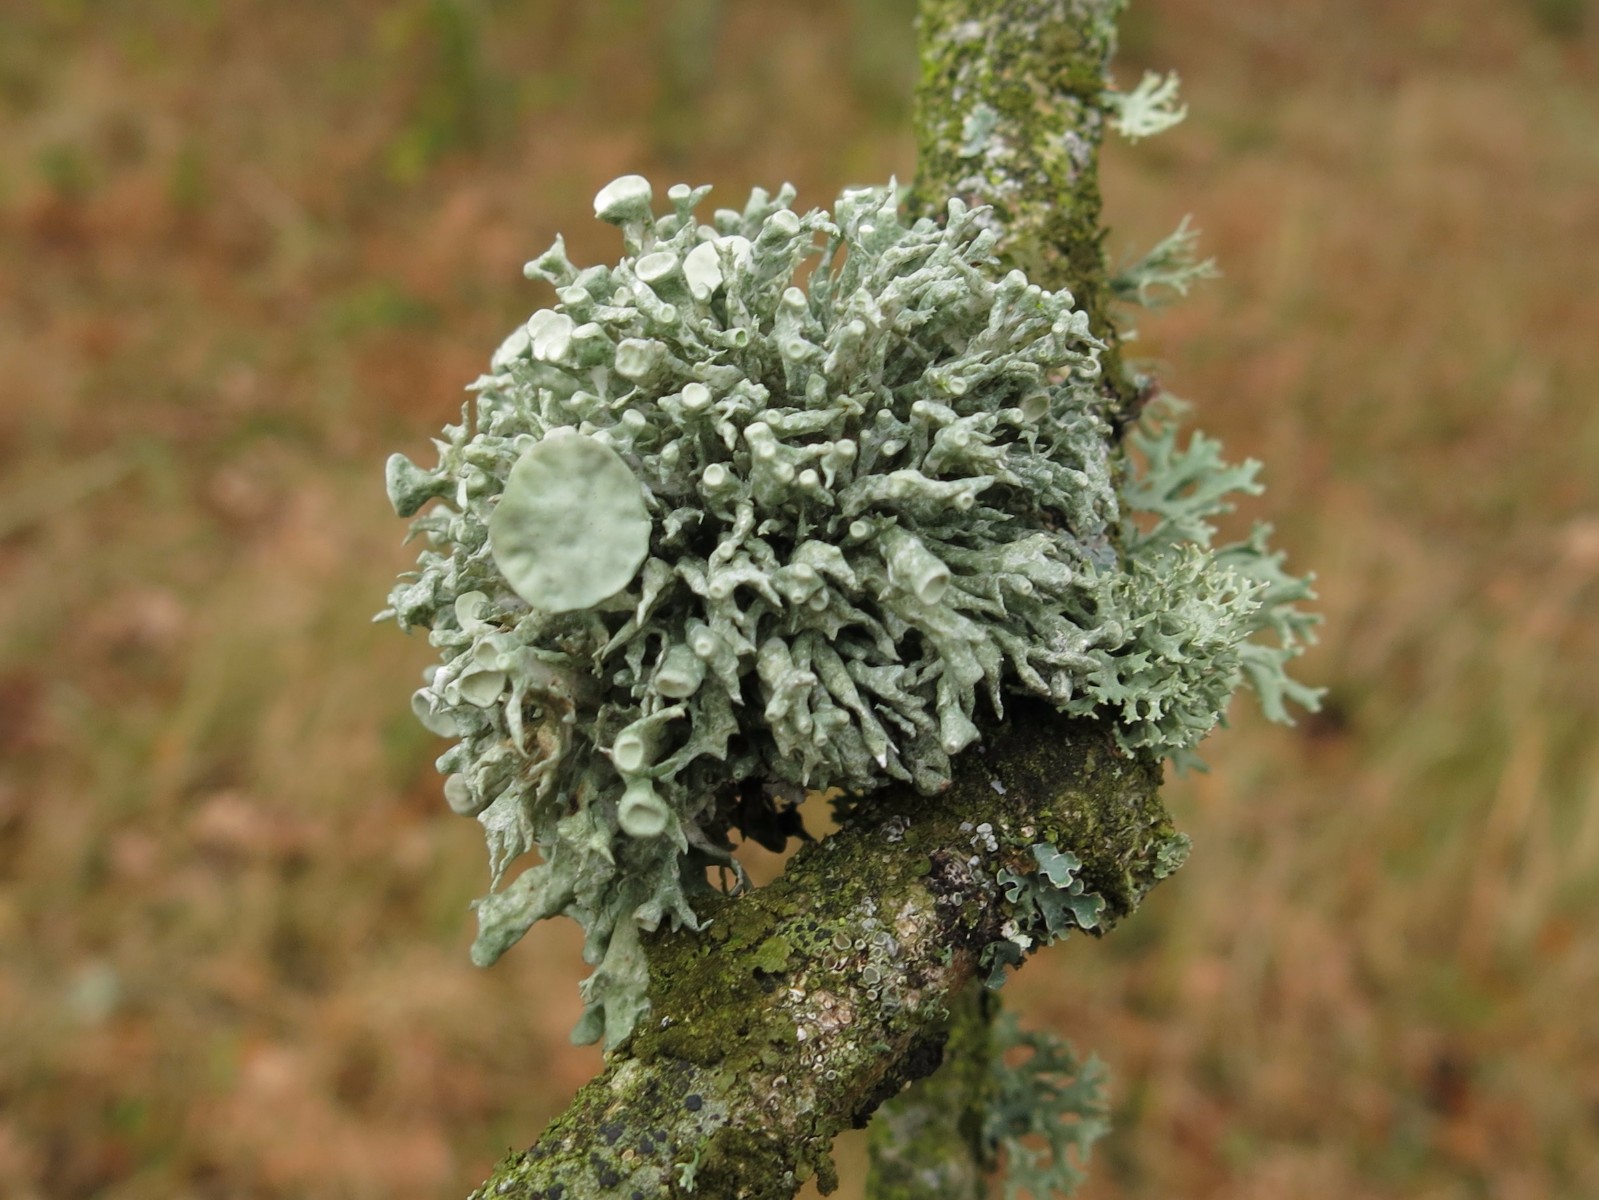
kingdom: Fungi
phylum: Ascomycota
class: Lecanoromycetes
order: Lecanorales
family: Ramalinaceae
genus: Ramalina
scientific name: Ramalina fastigiata
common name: tue-grenlav
